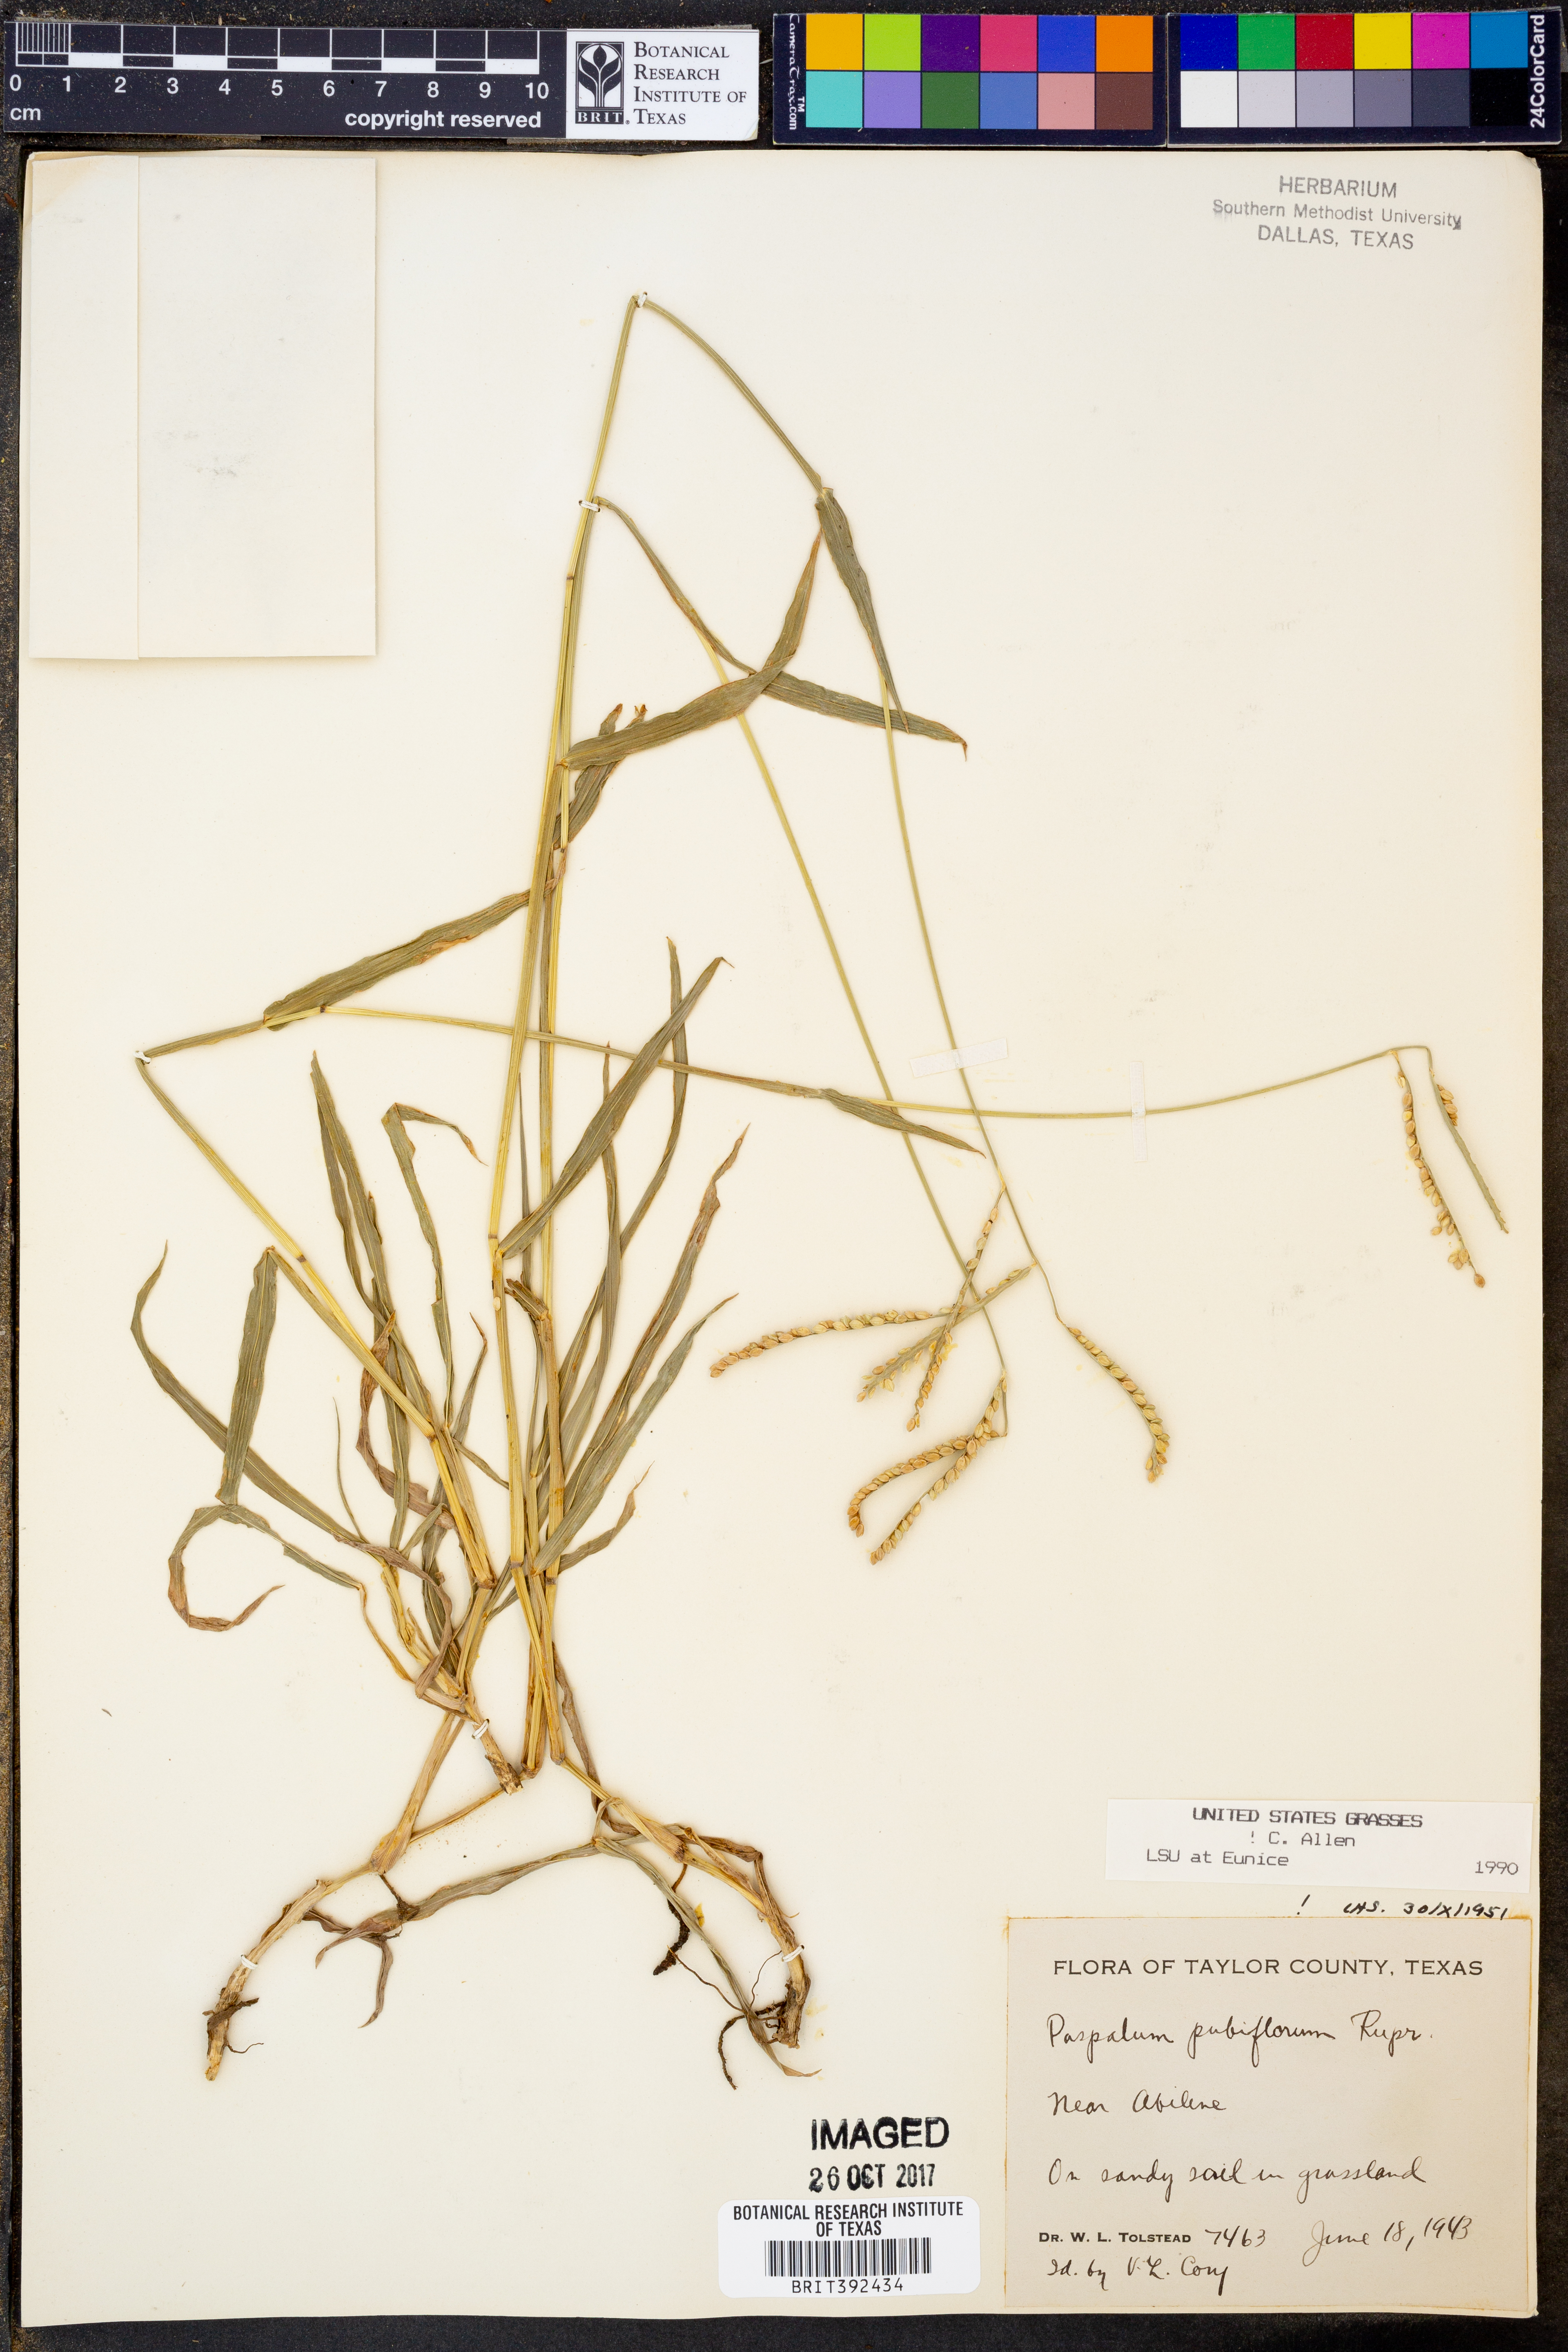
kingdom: Plantae
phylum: Tracheophyta
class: Liliopsida
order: Poales
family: Poaceae
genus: Paspalum
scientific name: Paspalum pubiflorum
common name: Hairy-seed paspalum
